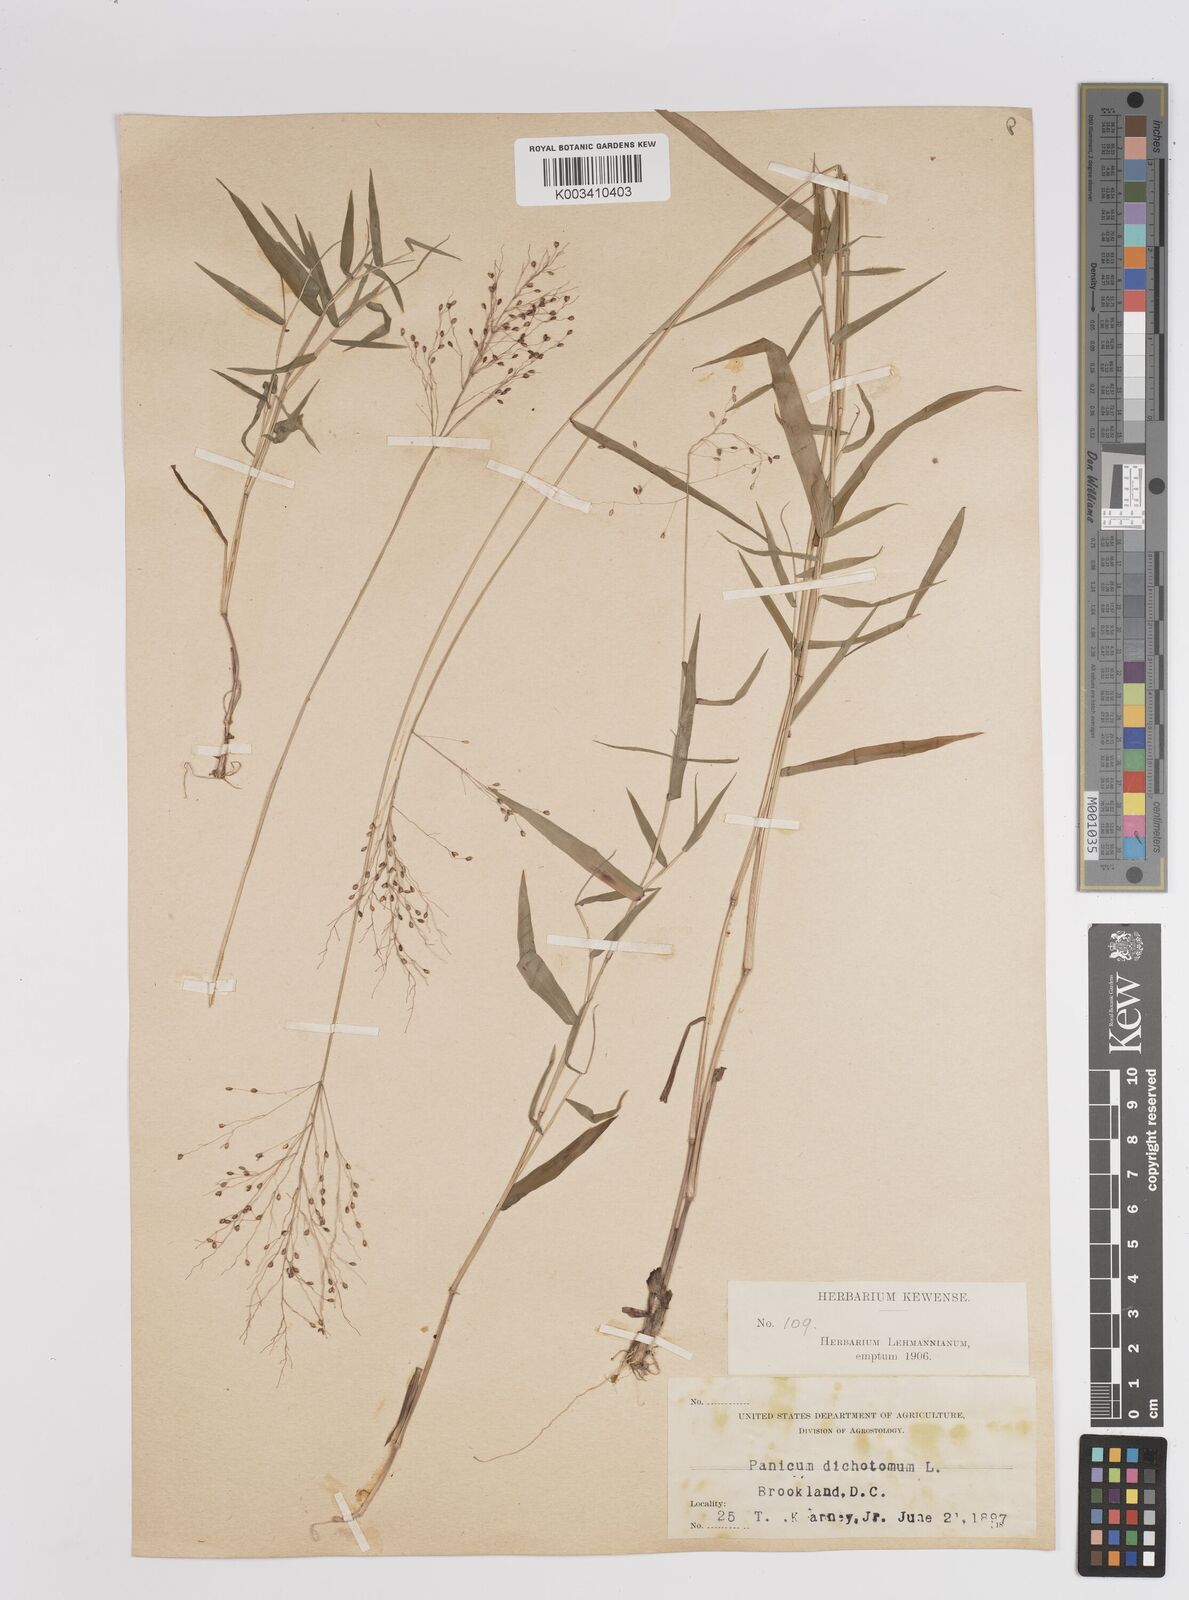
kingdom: Plantae
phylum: Tracheophyta
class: Liliopsida
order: Poales
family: Poaceae
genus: Dichanthelium
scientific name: Dichanthelium dichotomum
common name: Cypress panicgrass
